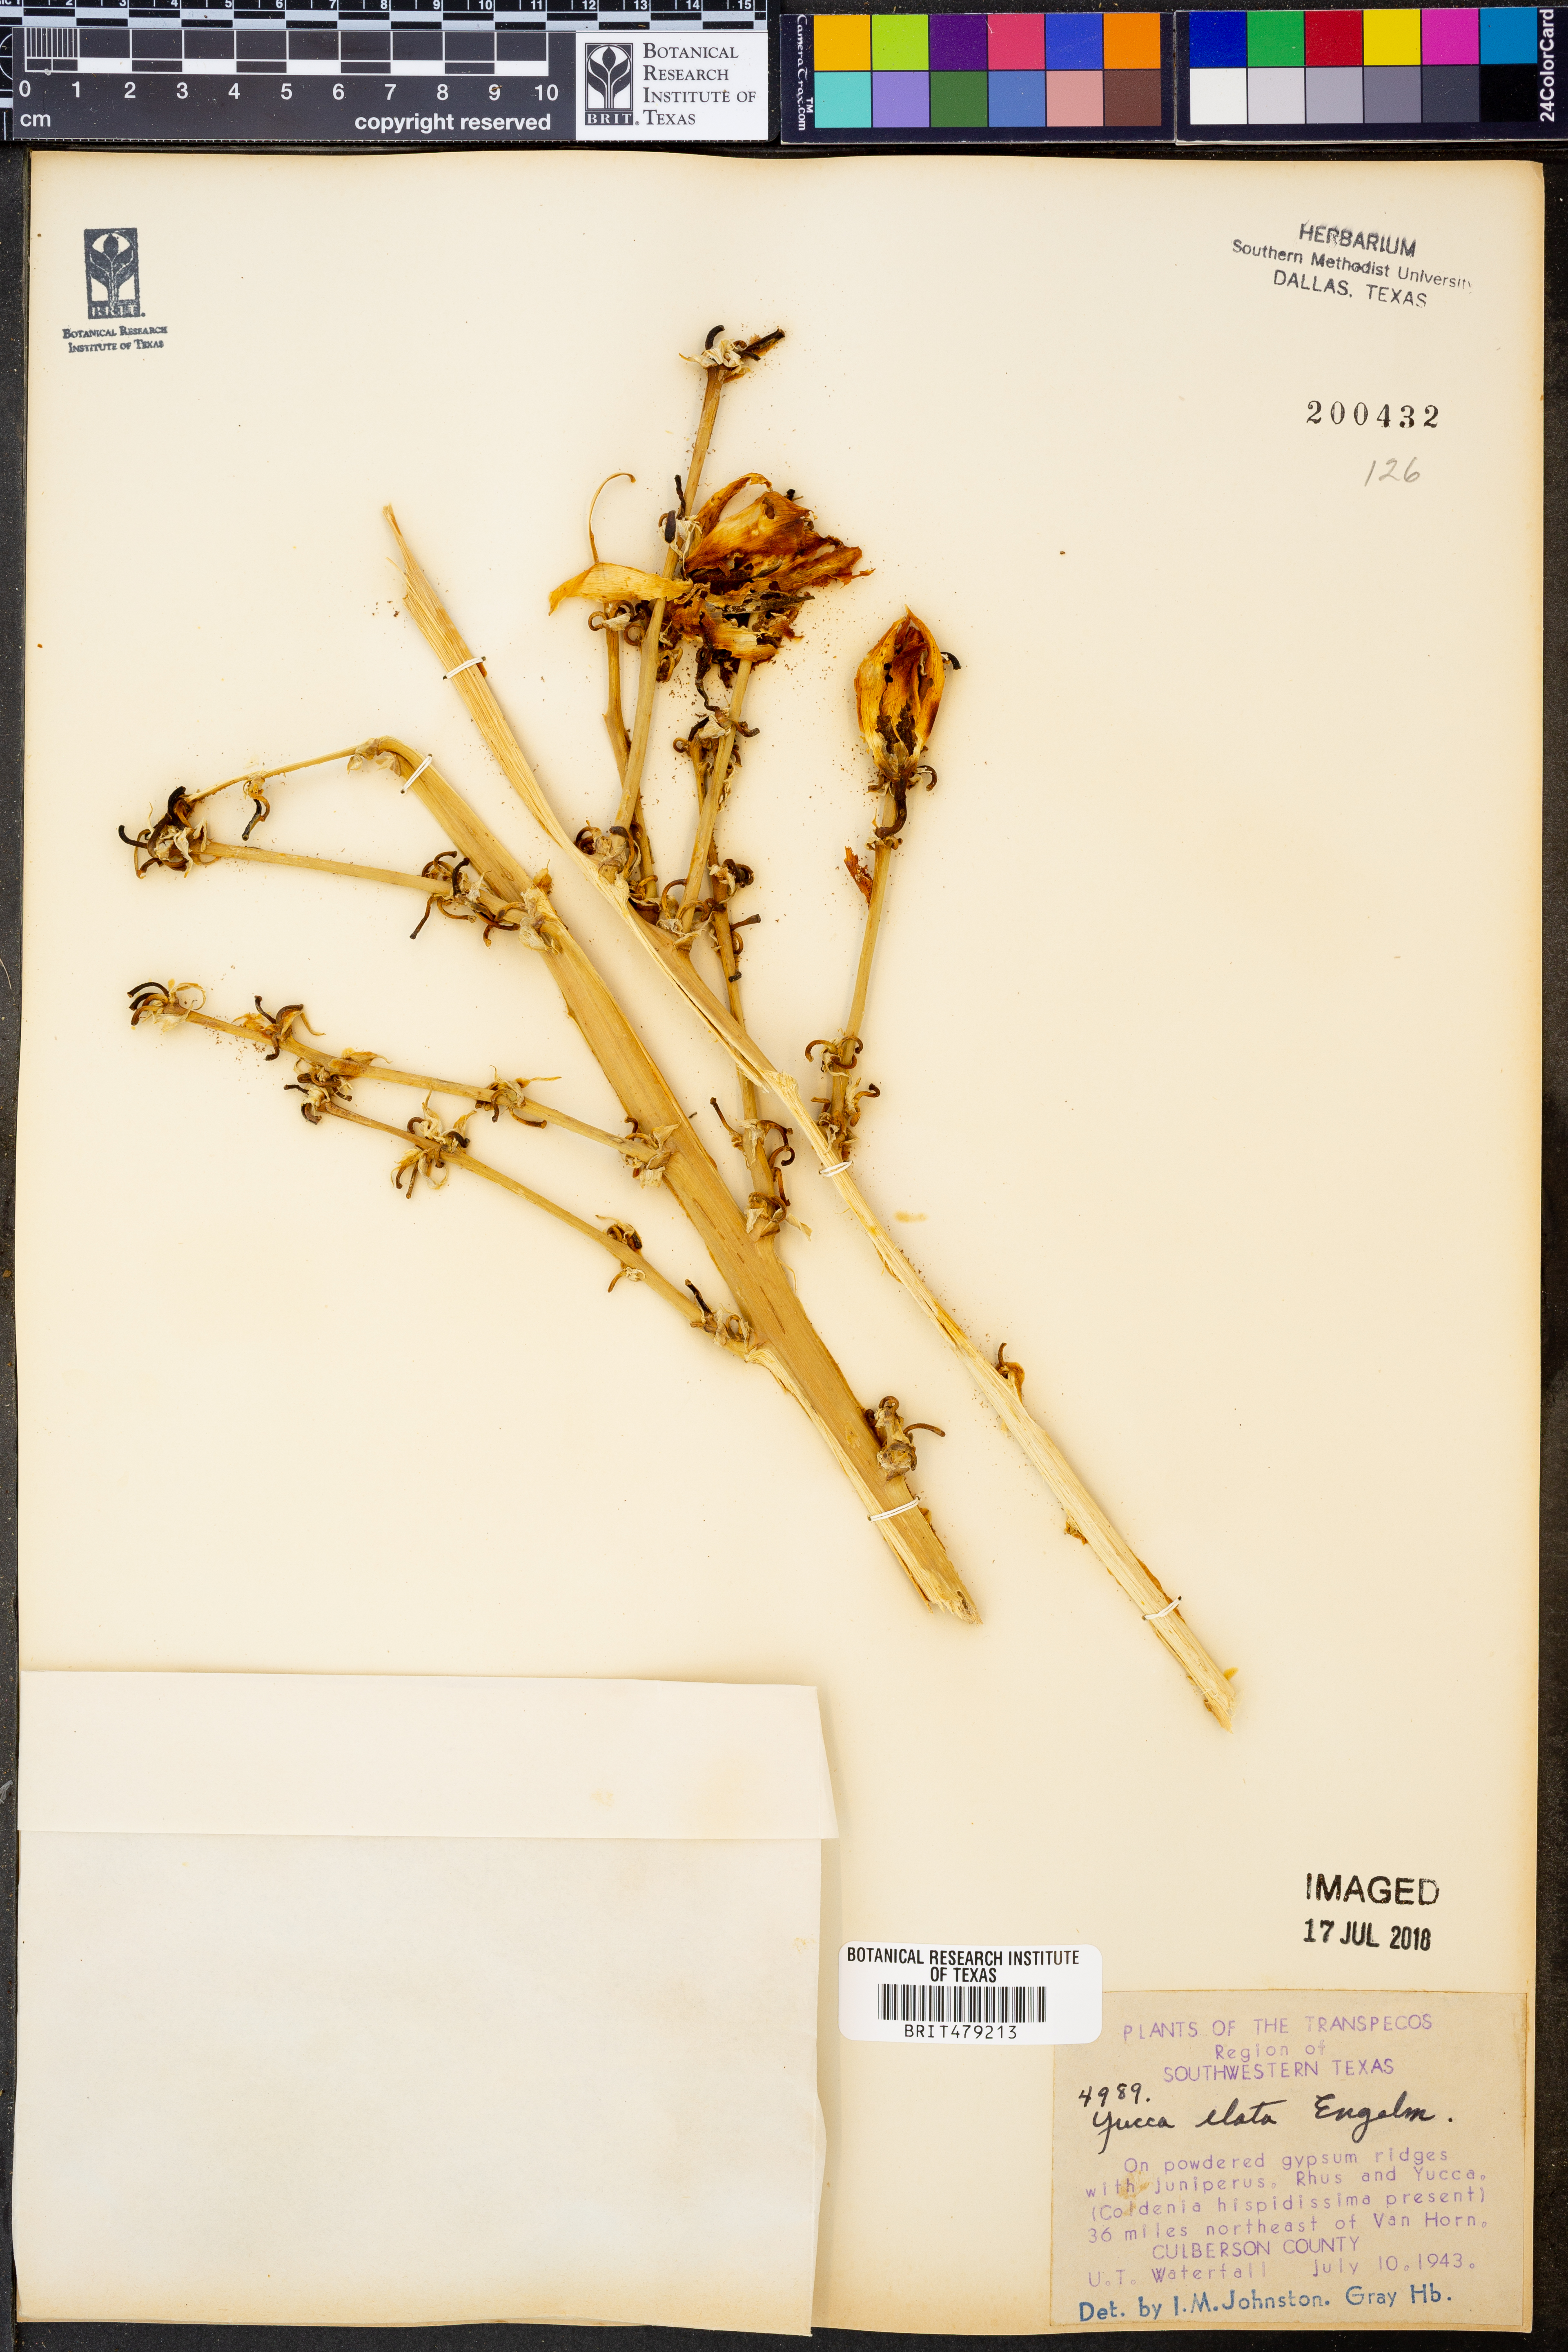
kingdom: Plantae
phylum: Tracheophyta
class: Liliopsida
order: Asparagales
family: Asparagaceae
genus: Yucca
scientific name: Yucca elata
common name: Palmella
